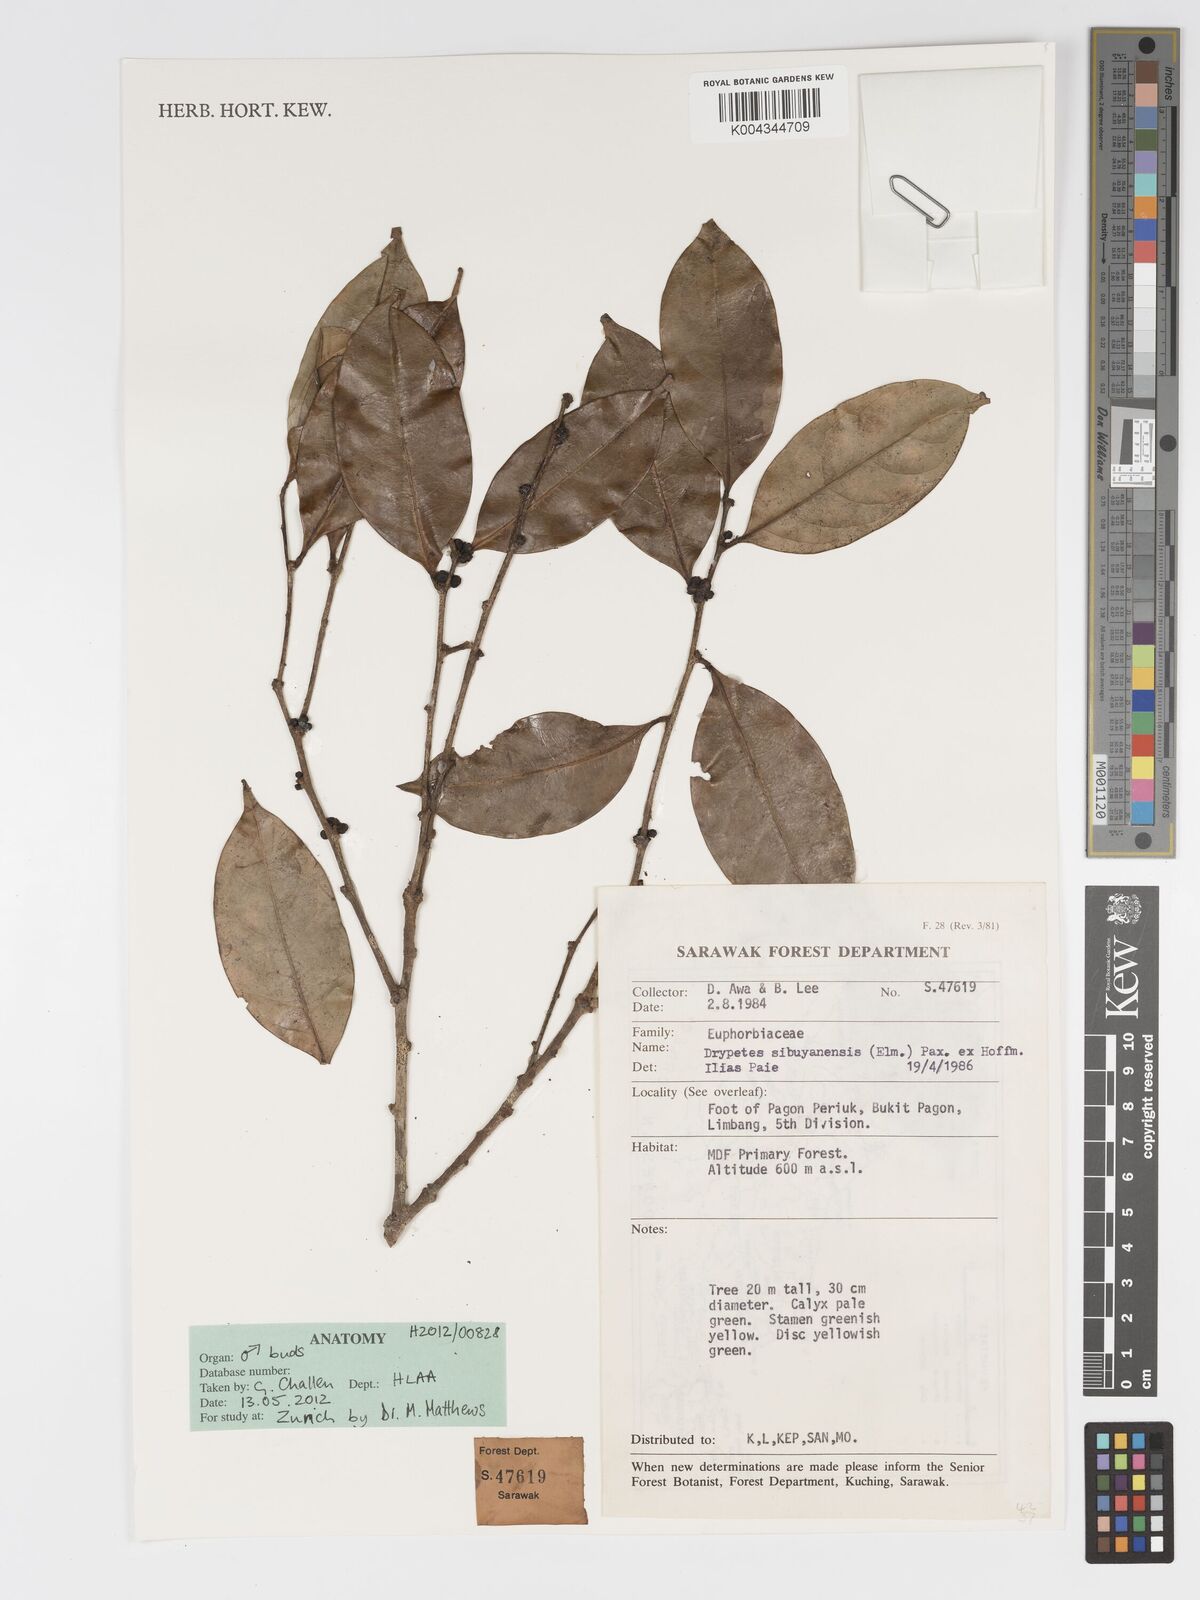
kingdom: Plantae
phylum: Tracheophyta
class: Magnoliopsida
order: Malpighiales
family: Putranjivaceae
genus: Drypetes
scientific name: Drypetes sibuyanensis
